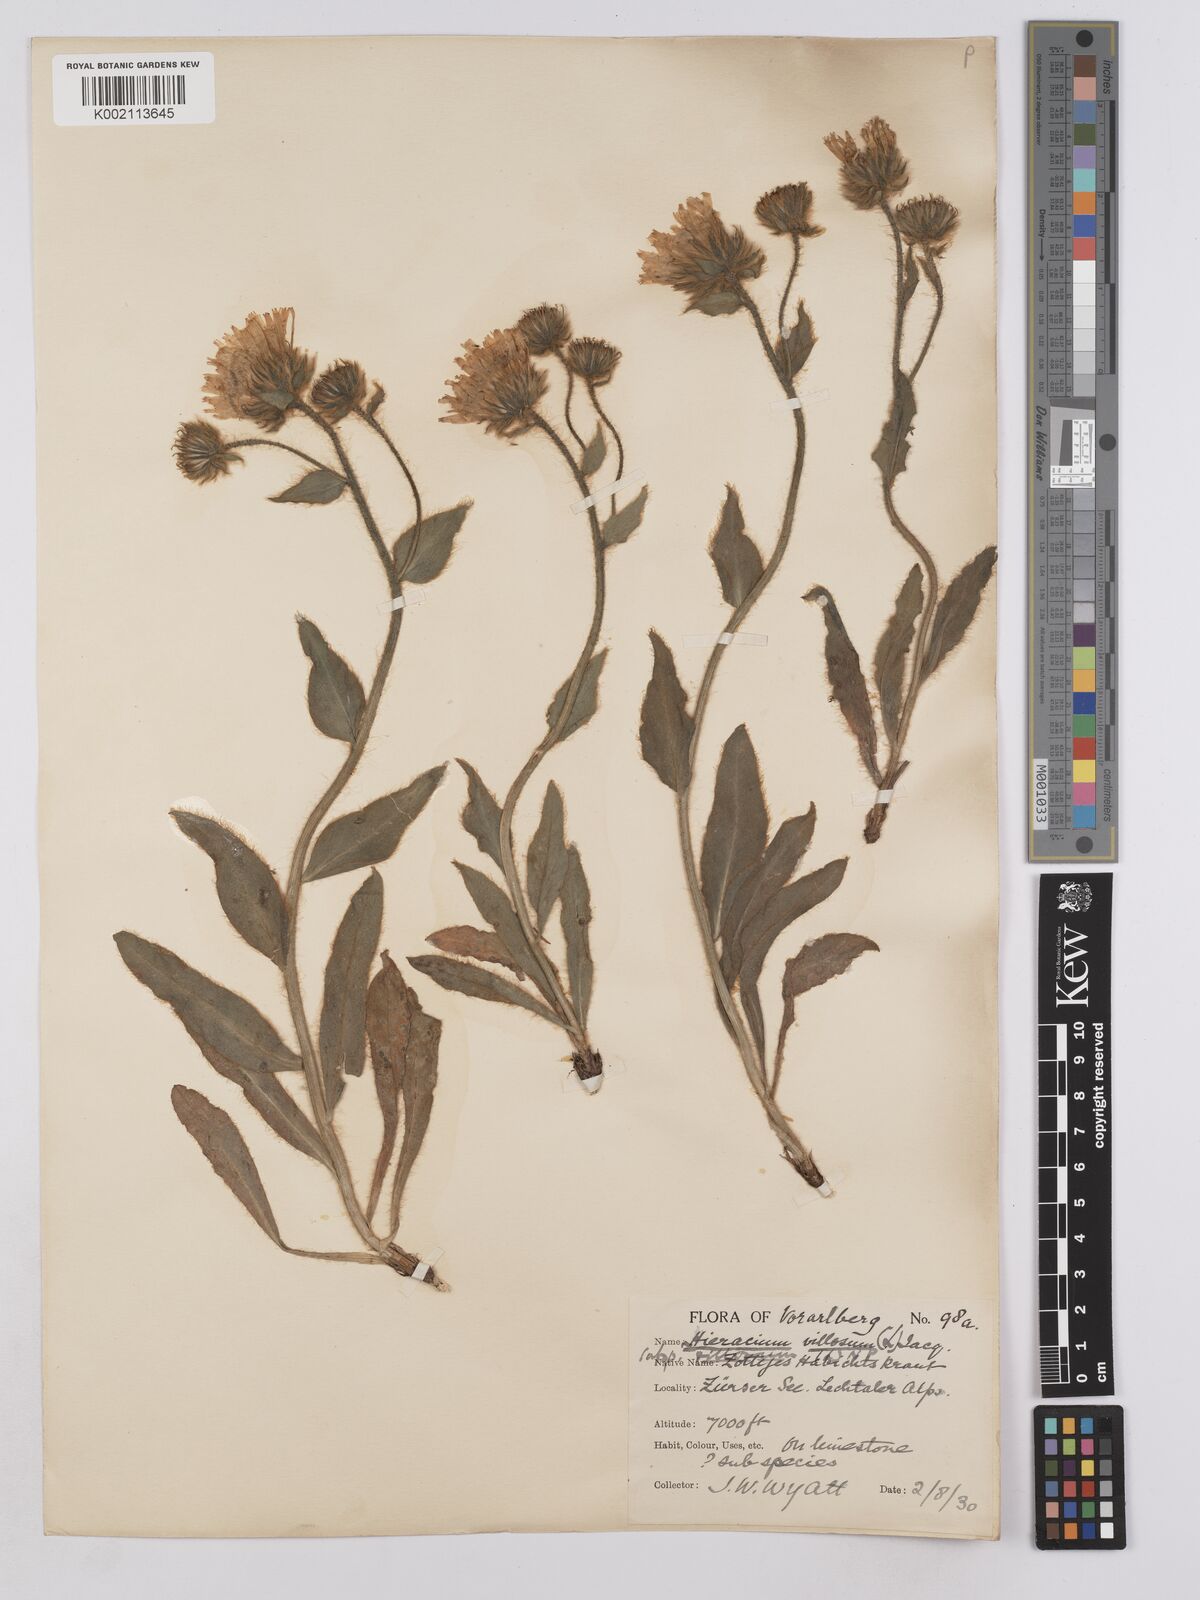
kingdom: Plantae
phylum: Tracheophyta
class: Magnoliopsida
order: Asterales
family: Asteraceae
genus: Hieracium
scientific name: Hieracium villosum
